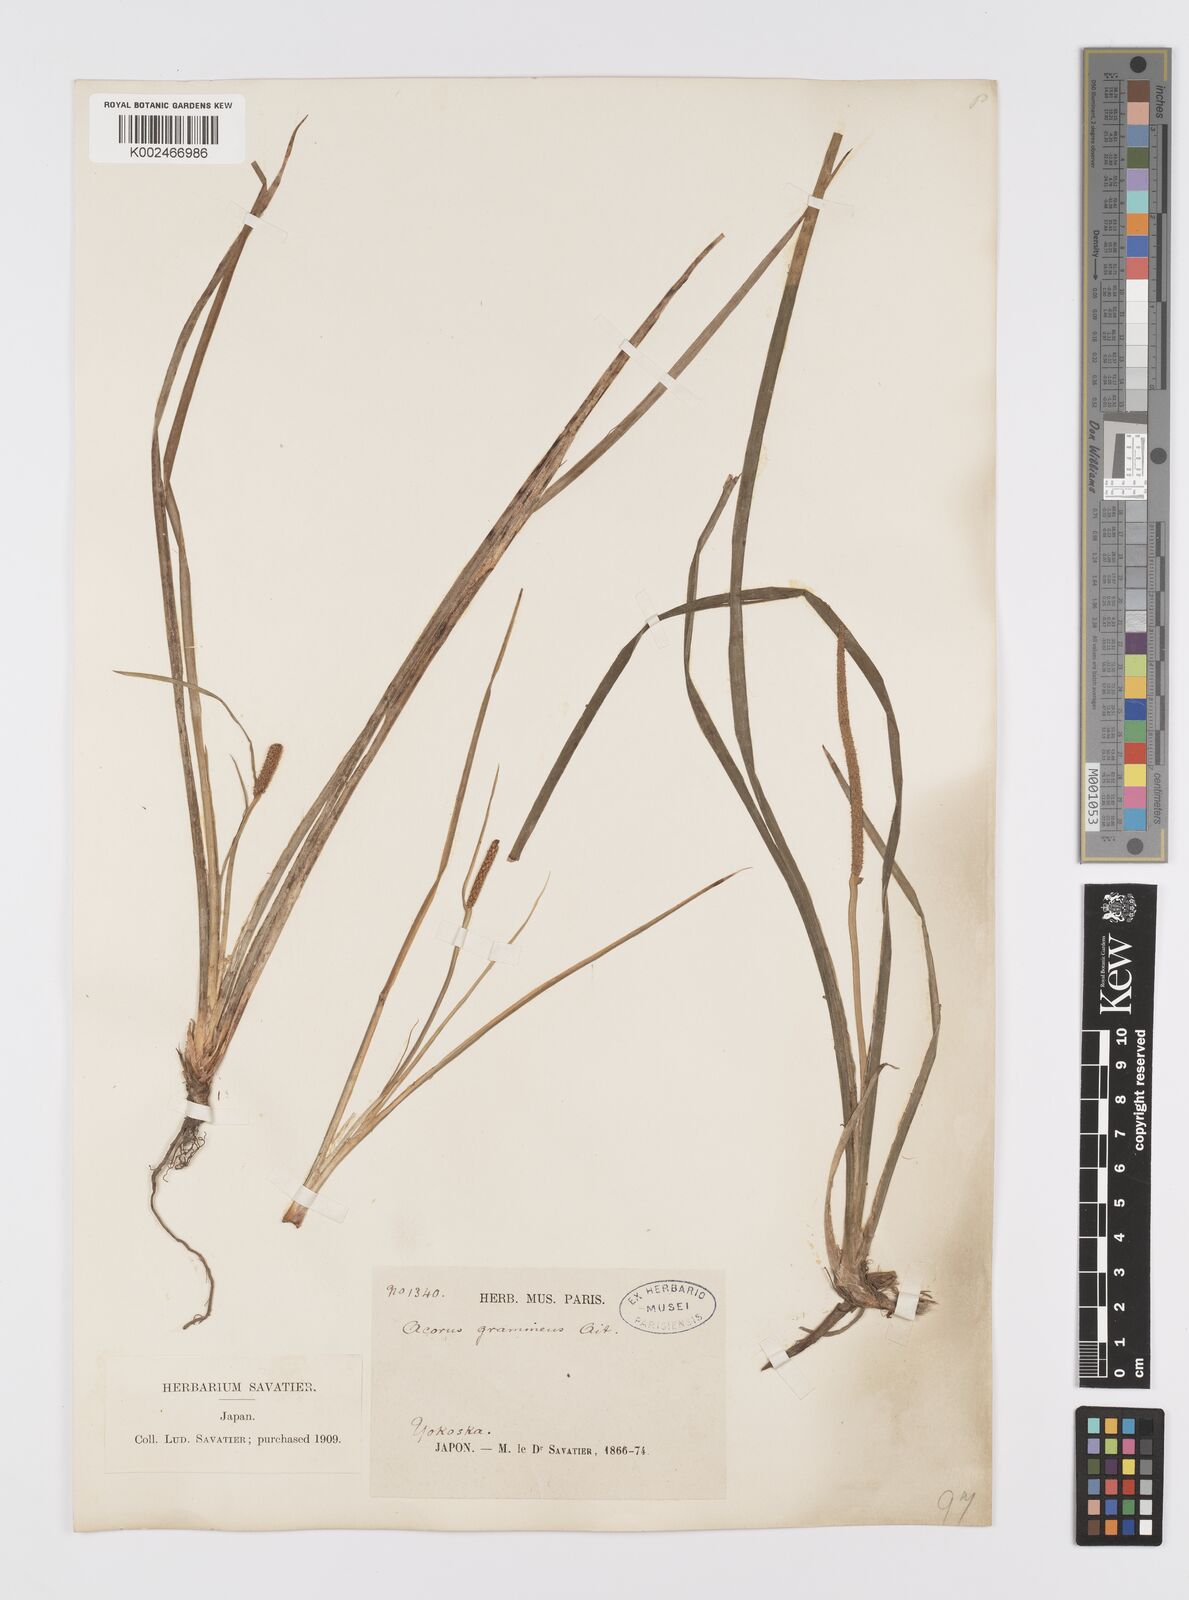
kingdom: Plantae
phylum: Tracheophyta
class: Liliopsida
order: Acorales
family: Acoraceae
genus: Acorus
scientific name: Acorus gramineus
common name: Slender sweet-flag
